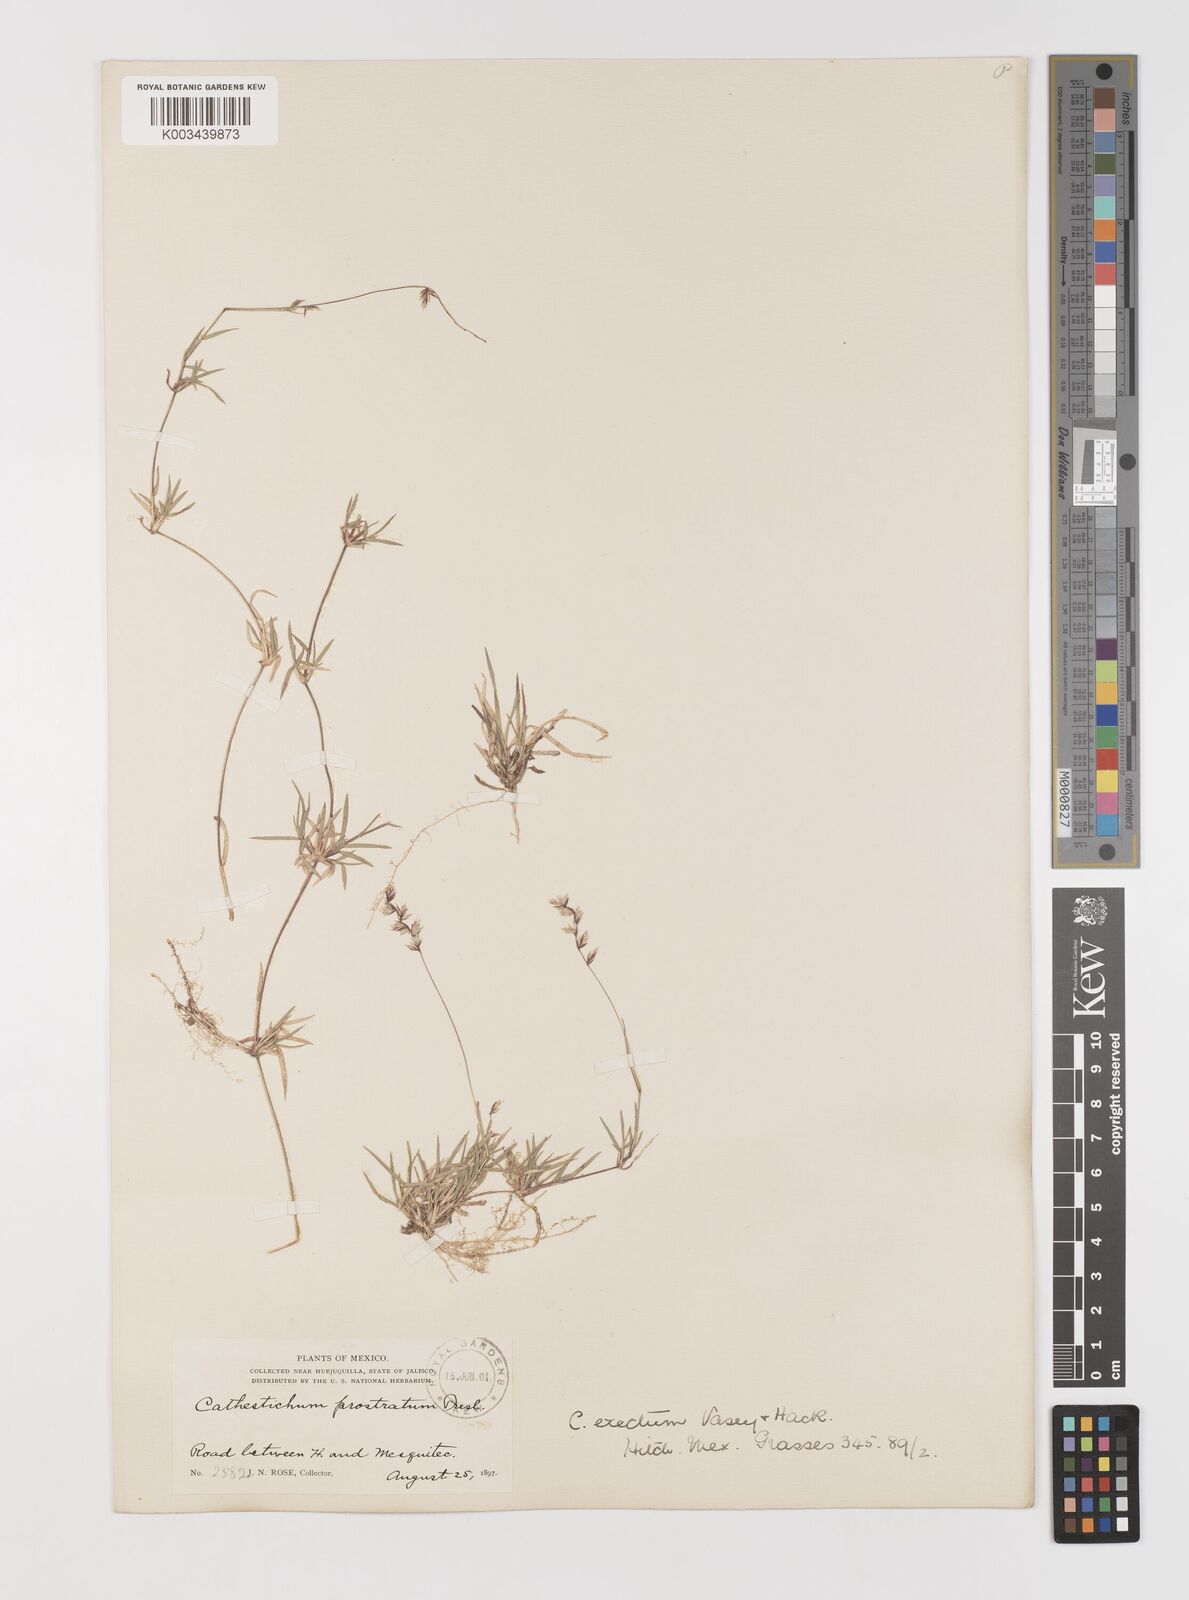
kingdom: Plantae
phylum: Tracheophyta
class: Liliopsida
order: Poales
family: Poaceae
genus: Bouteloua
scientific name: Bouteloua diversispicula
